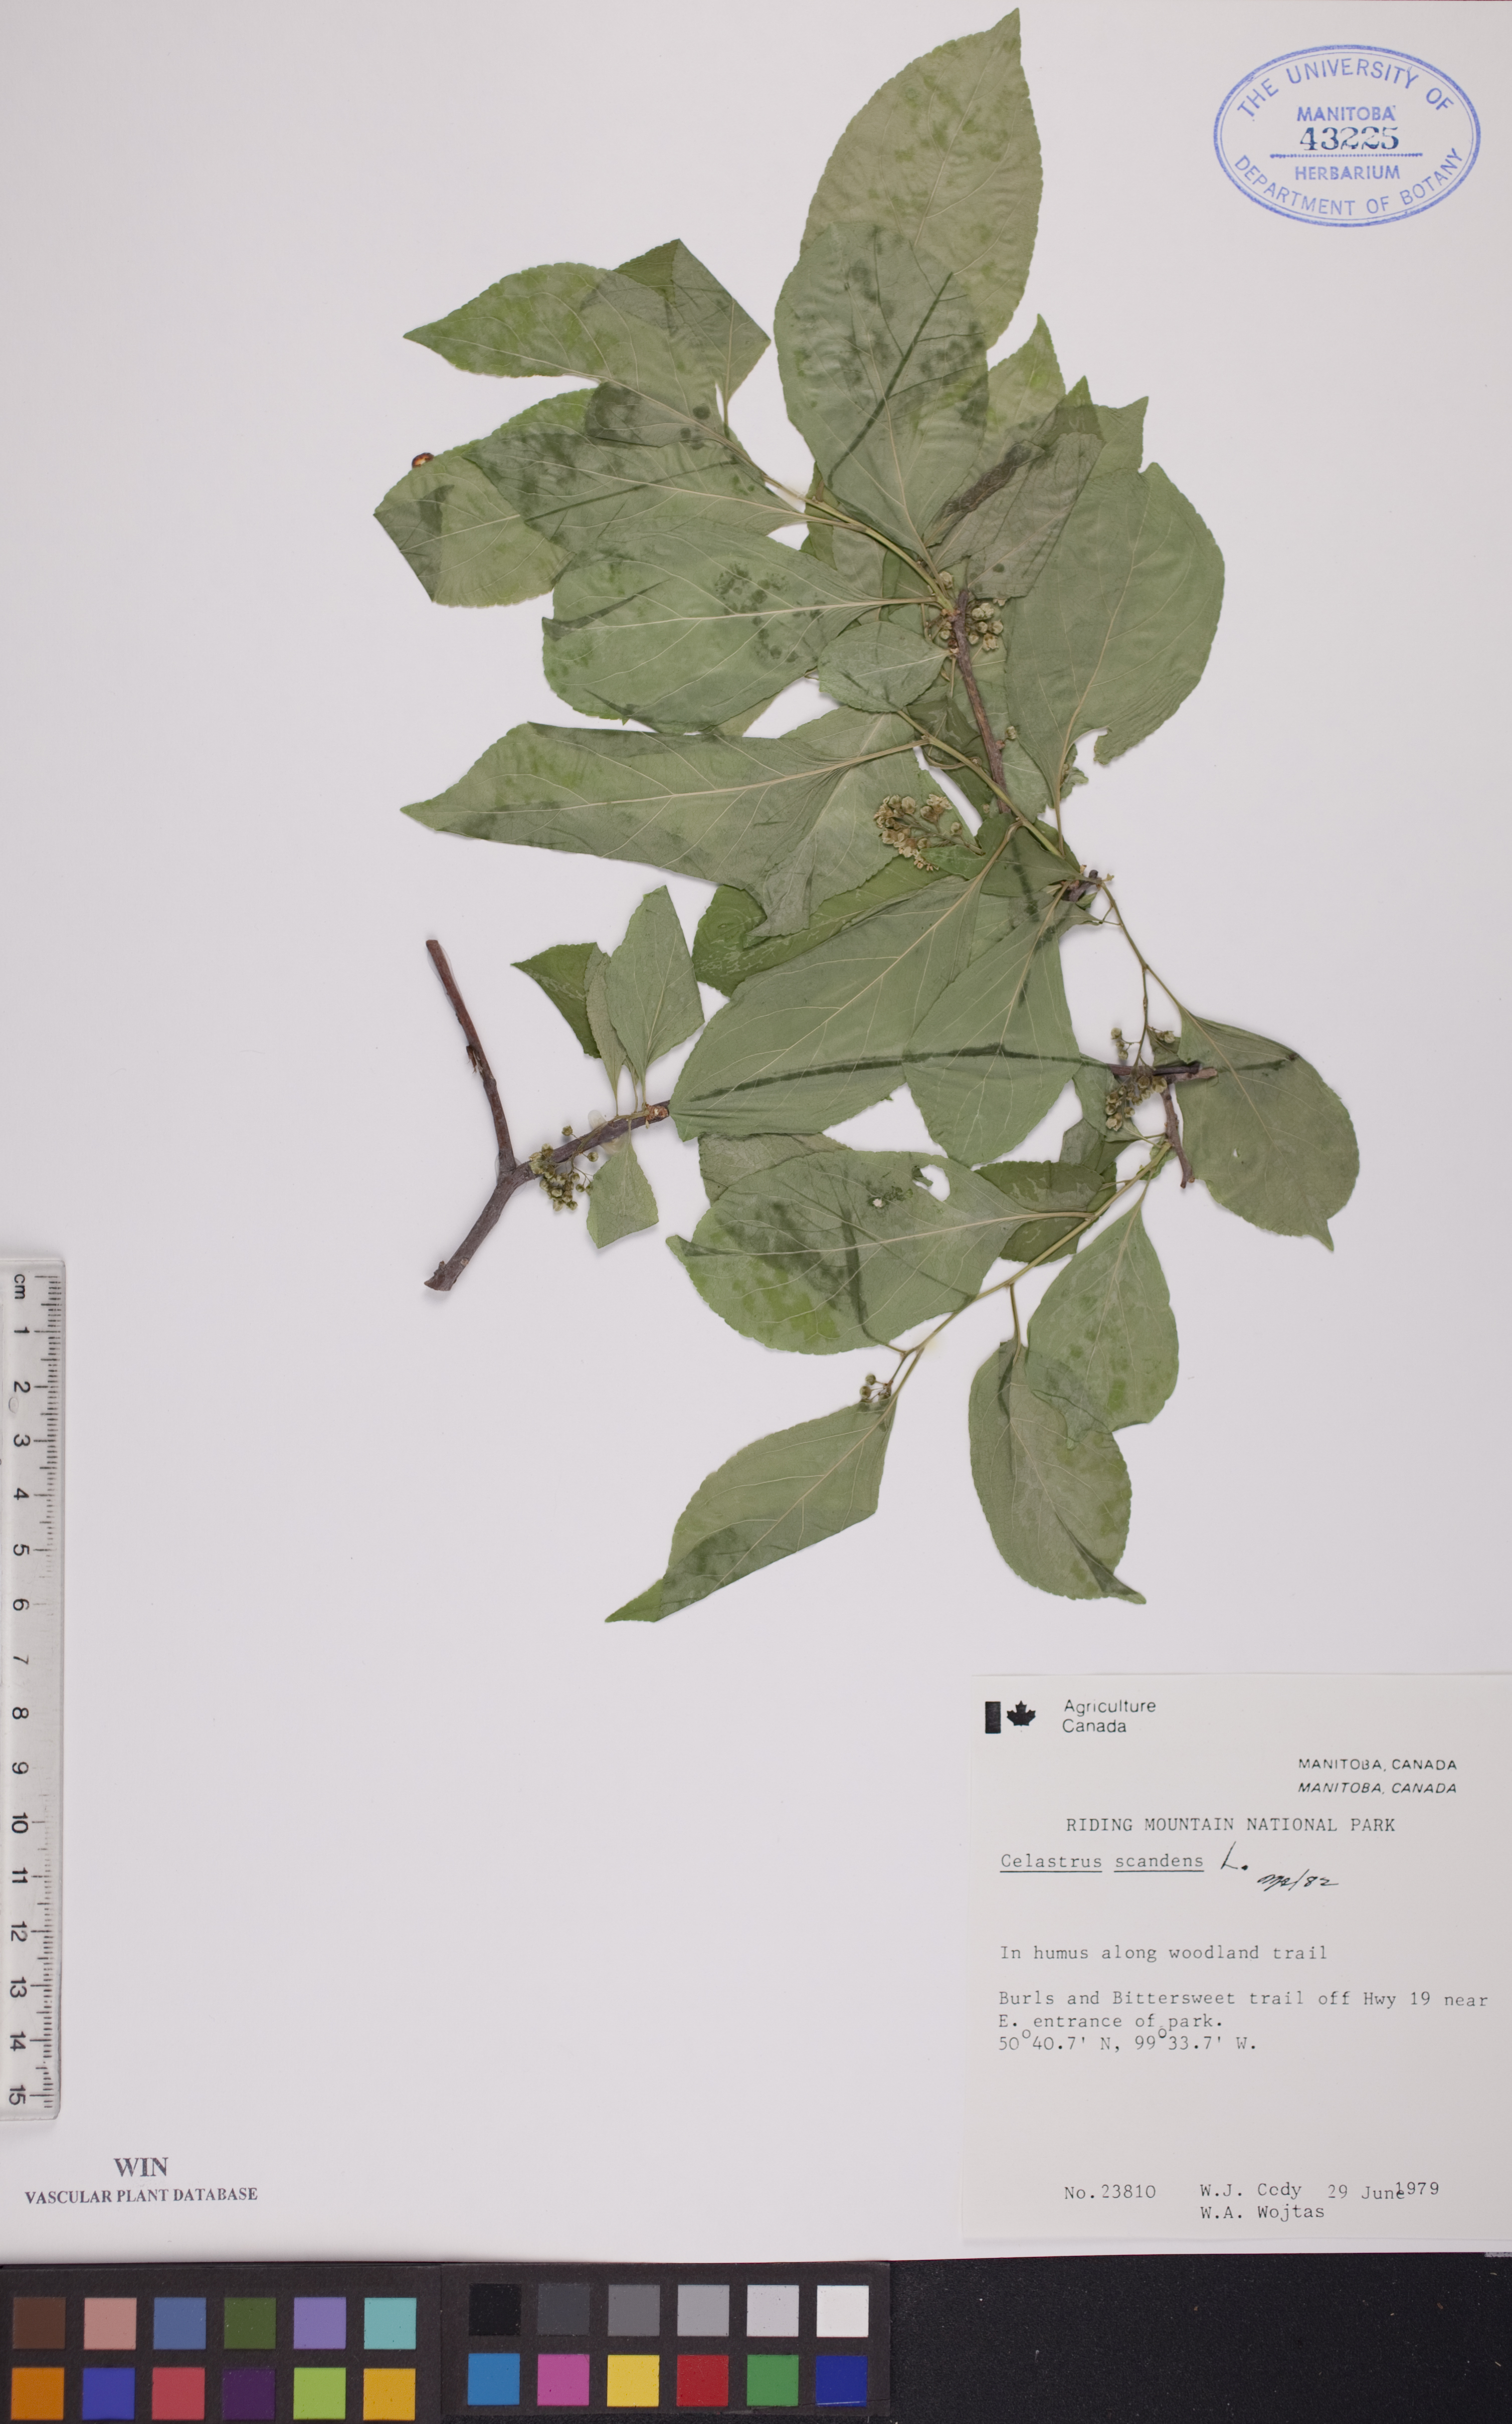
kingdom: Plantae
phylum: Tracheophyta
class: Magnoliopsida
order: Celastrales
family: Celastraceae
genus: Celastrus
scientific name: Celastrus scandens
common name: American bittersweet
